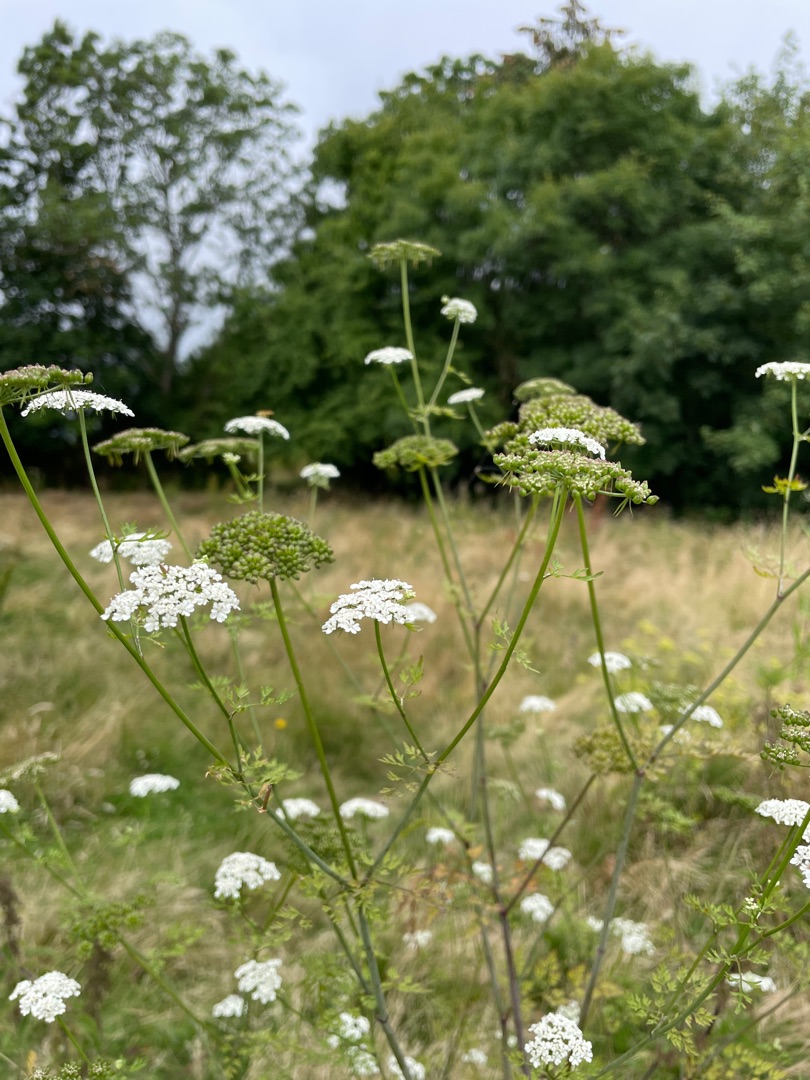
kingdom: Plantae
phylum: Tracheophyta
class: Magnoliopsida
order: Apiales
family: Apiaceae
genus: Aethusa
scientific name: Aethusa cynapium
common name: Hundepersille
